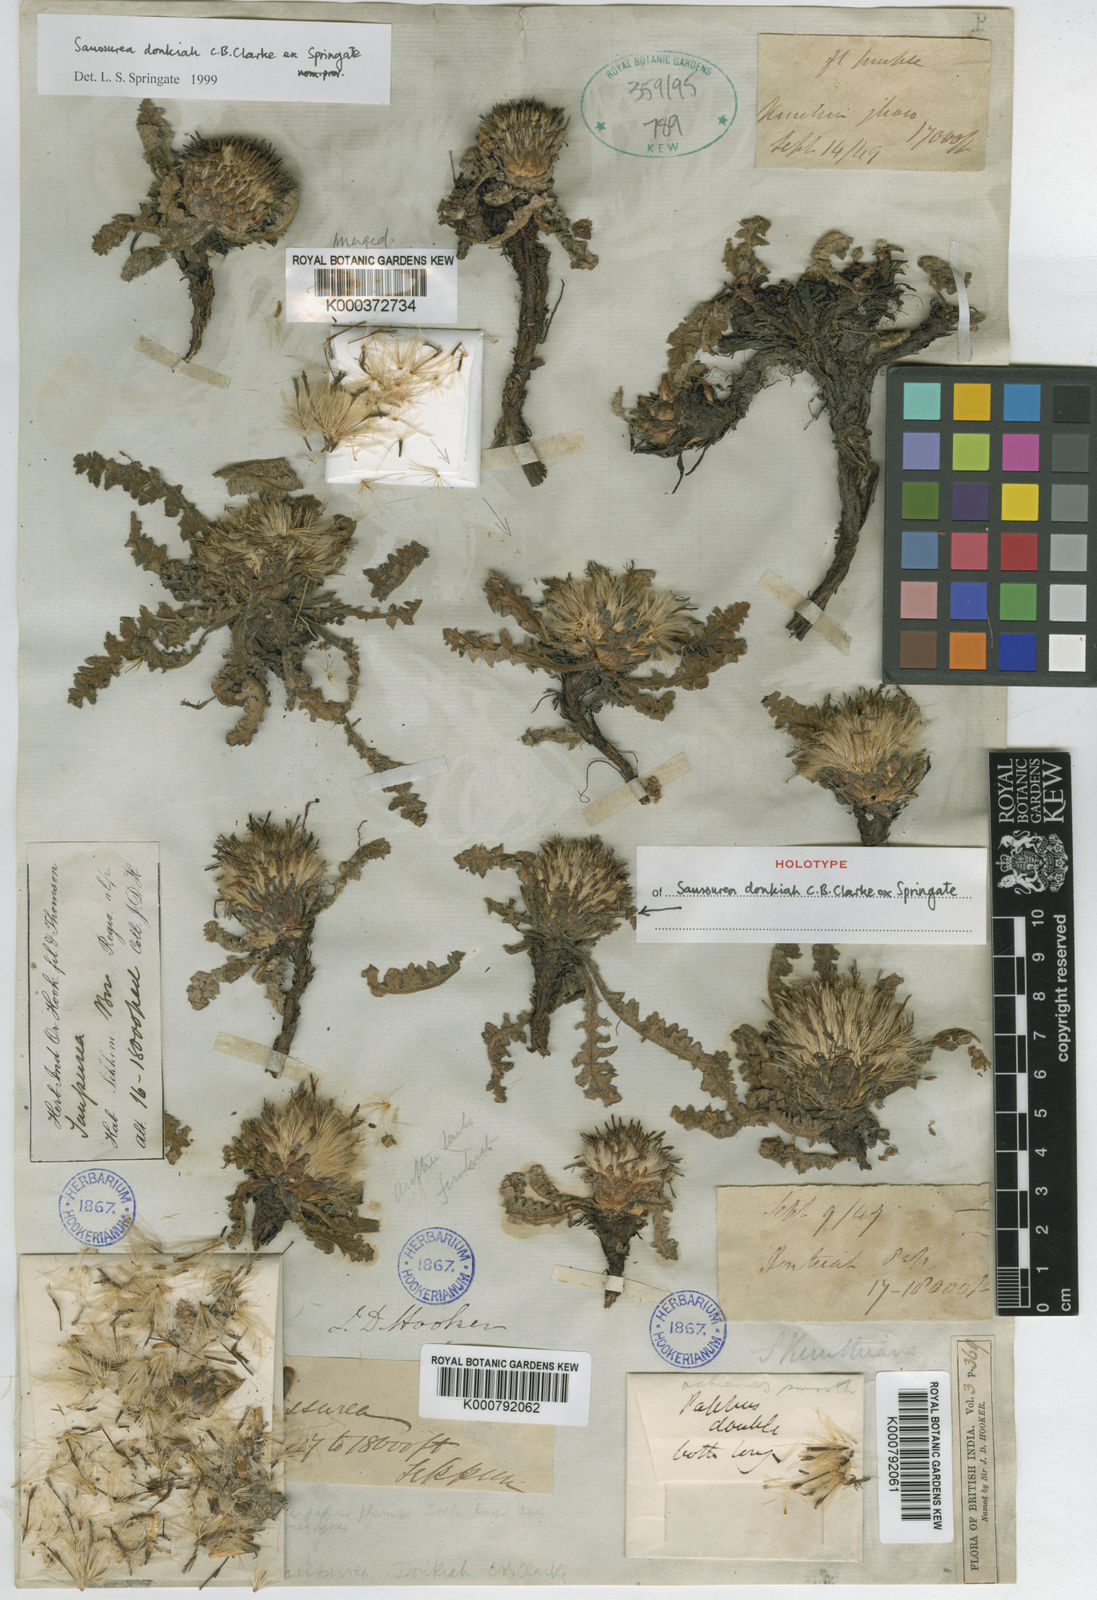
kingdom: Plantae
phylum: Tracheophyta
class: Magnoliopsida
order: Asterales
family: Asteraceae
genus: Saussurea
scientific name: Saussurea donkiah
